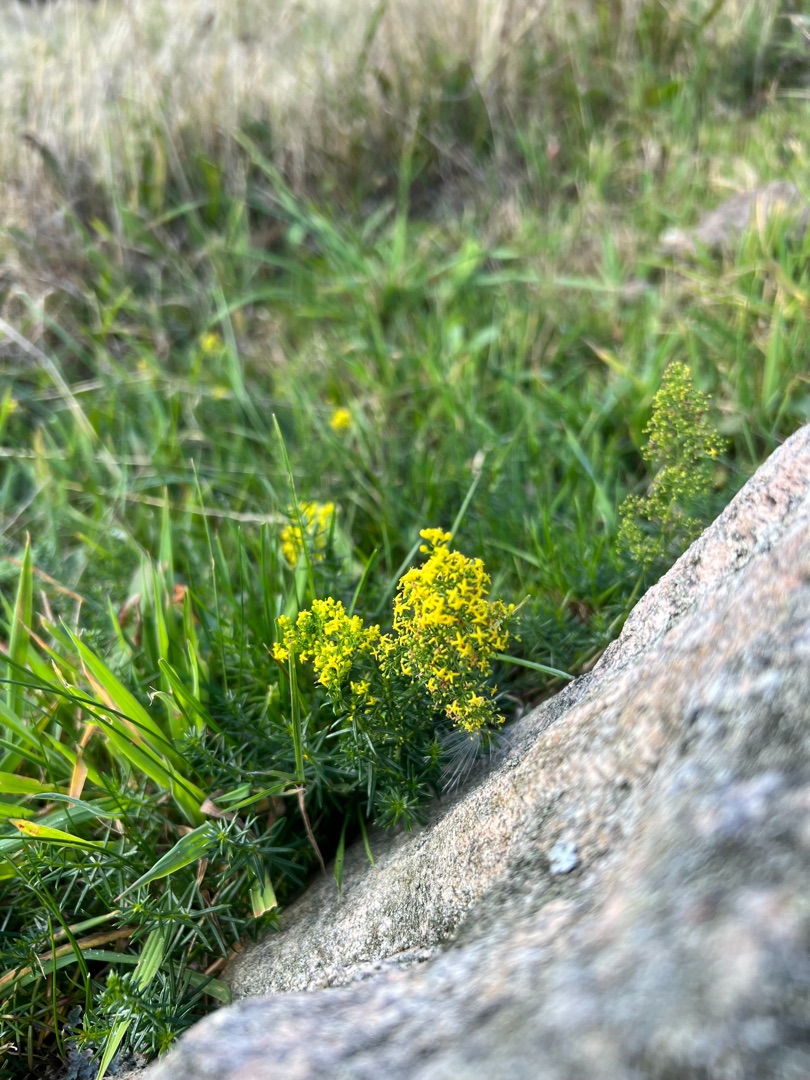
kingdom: Plantae
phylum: Tracheophyta
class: Magnoliopsida
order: Gentianales
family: Rubiaceae
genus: Galium
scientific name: Galium verum
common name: Gul snerre
